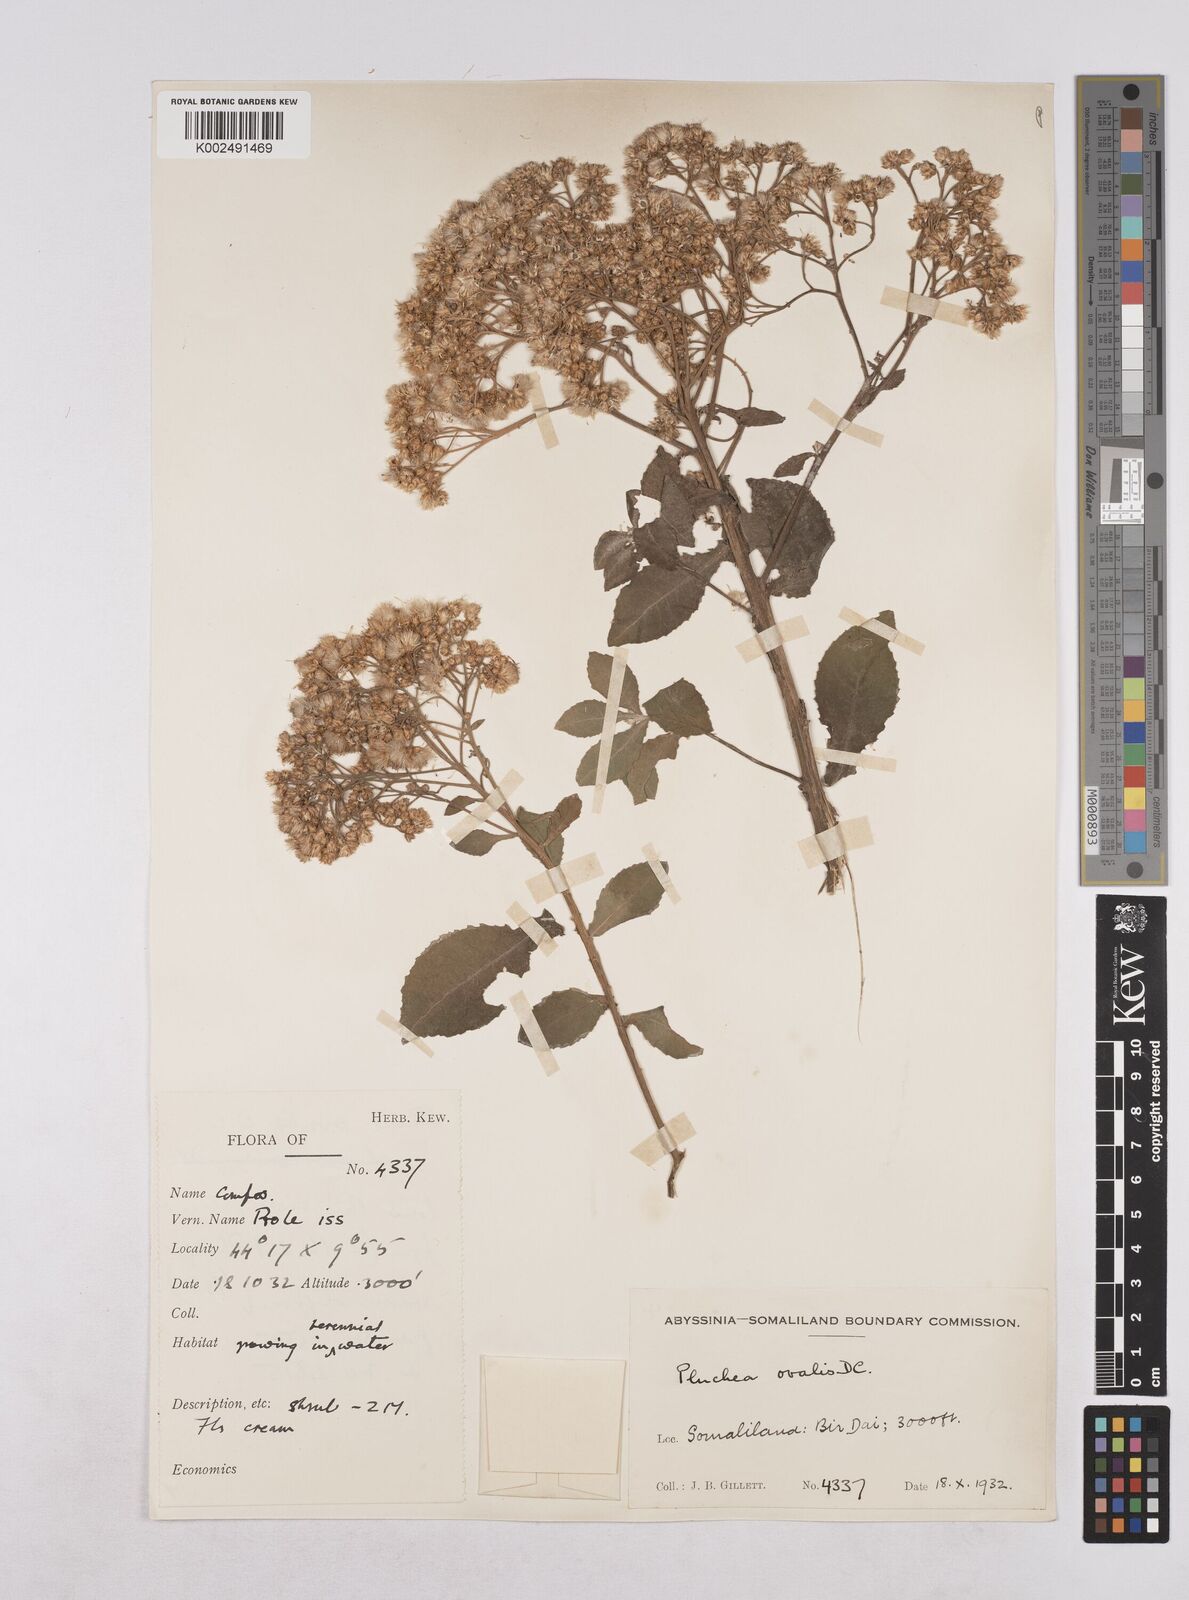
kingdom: Plantae
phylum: Tracheophyta
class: Magnoliopsida
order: Asterales
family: Asteraceae
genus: Pluchea
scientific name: Pluchea ovalis
